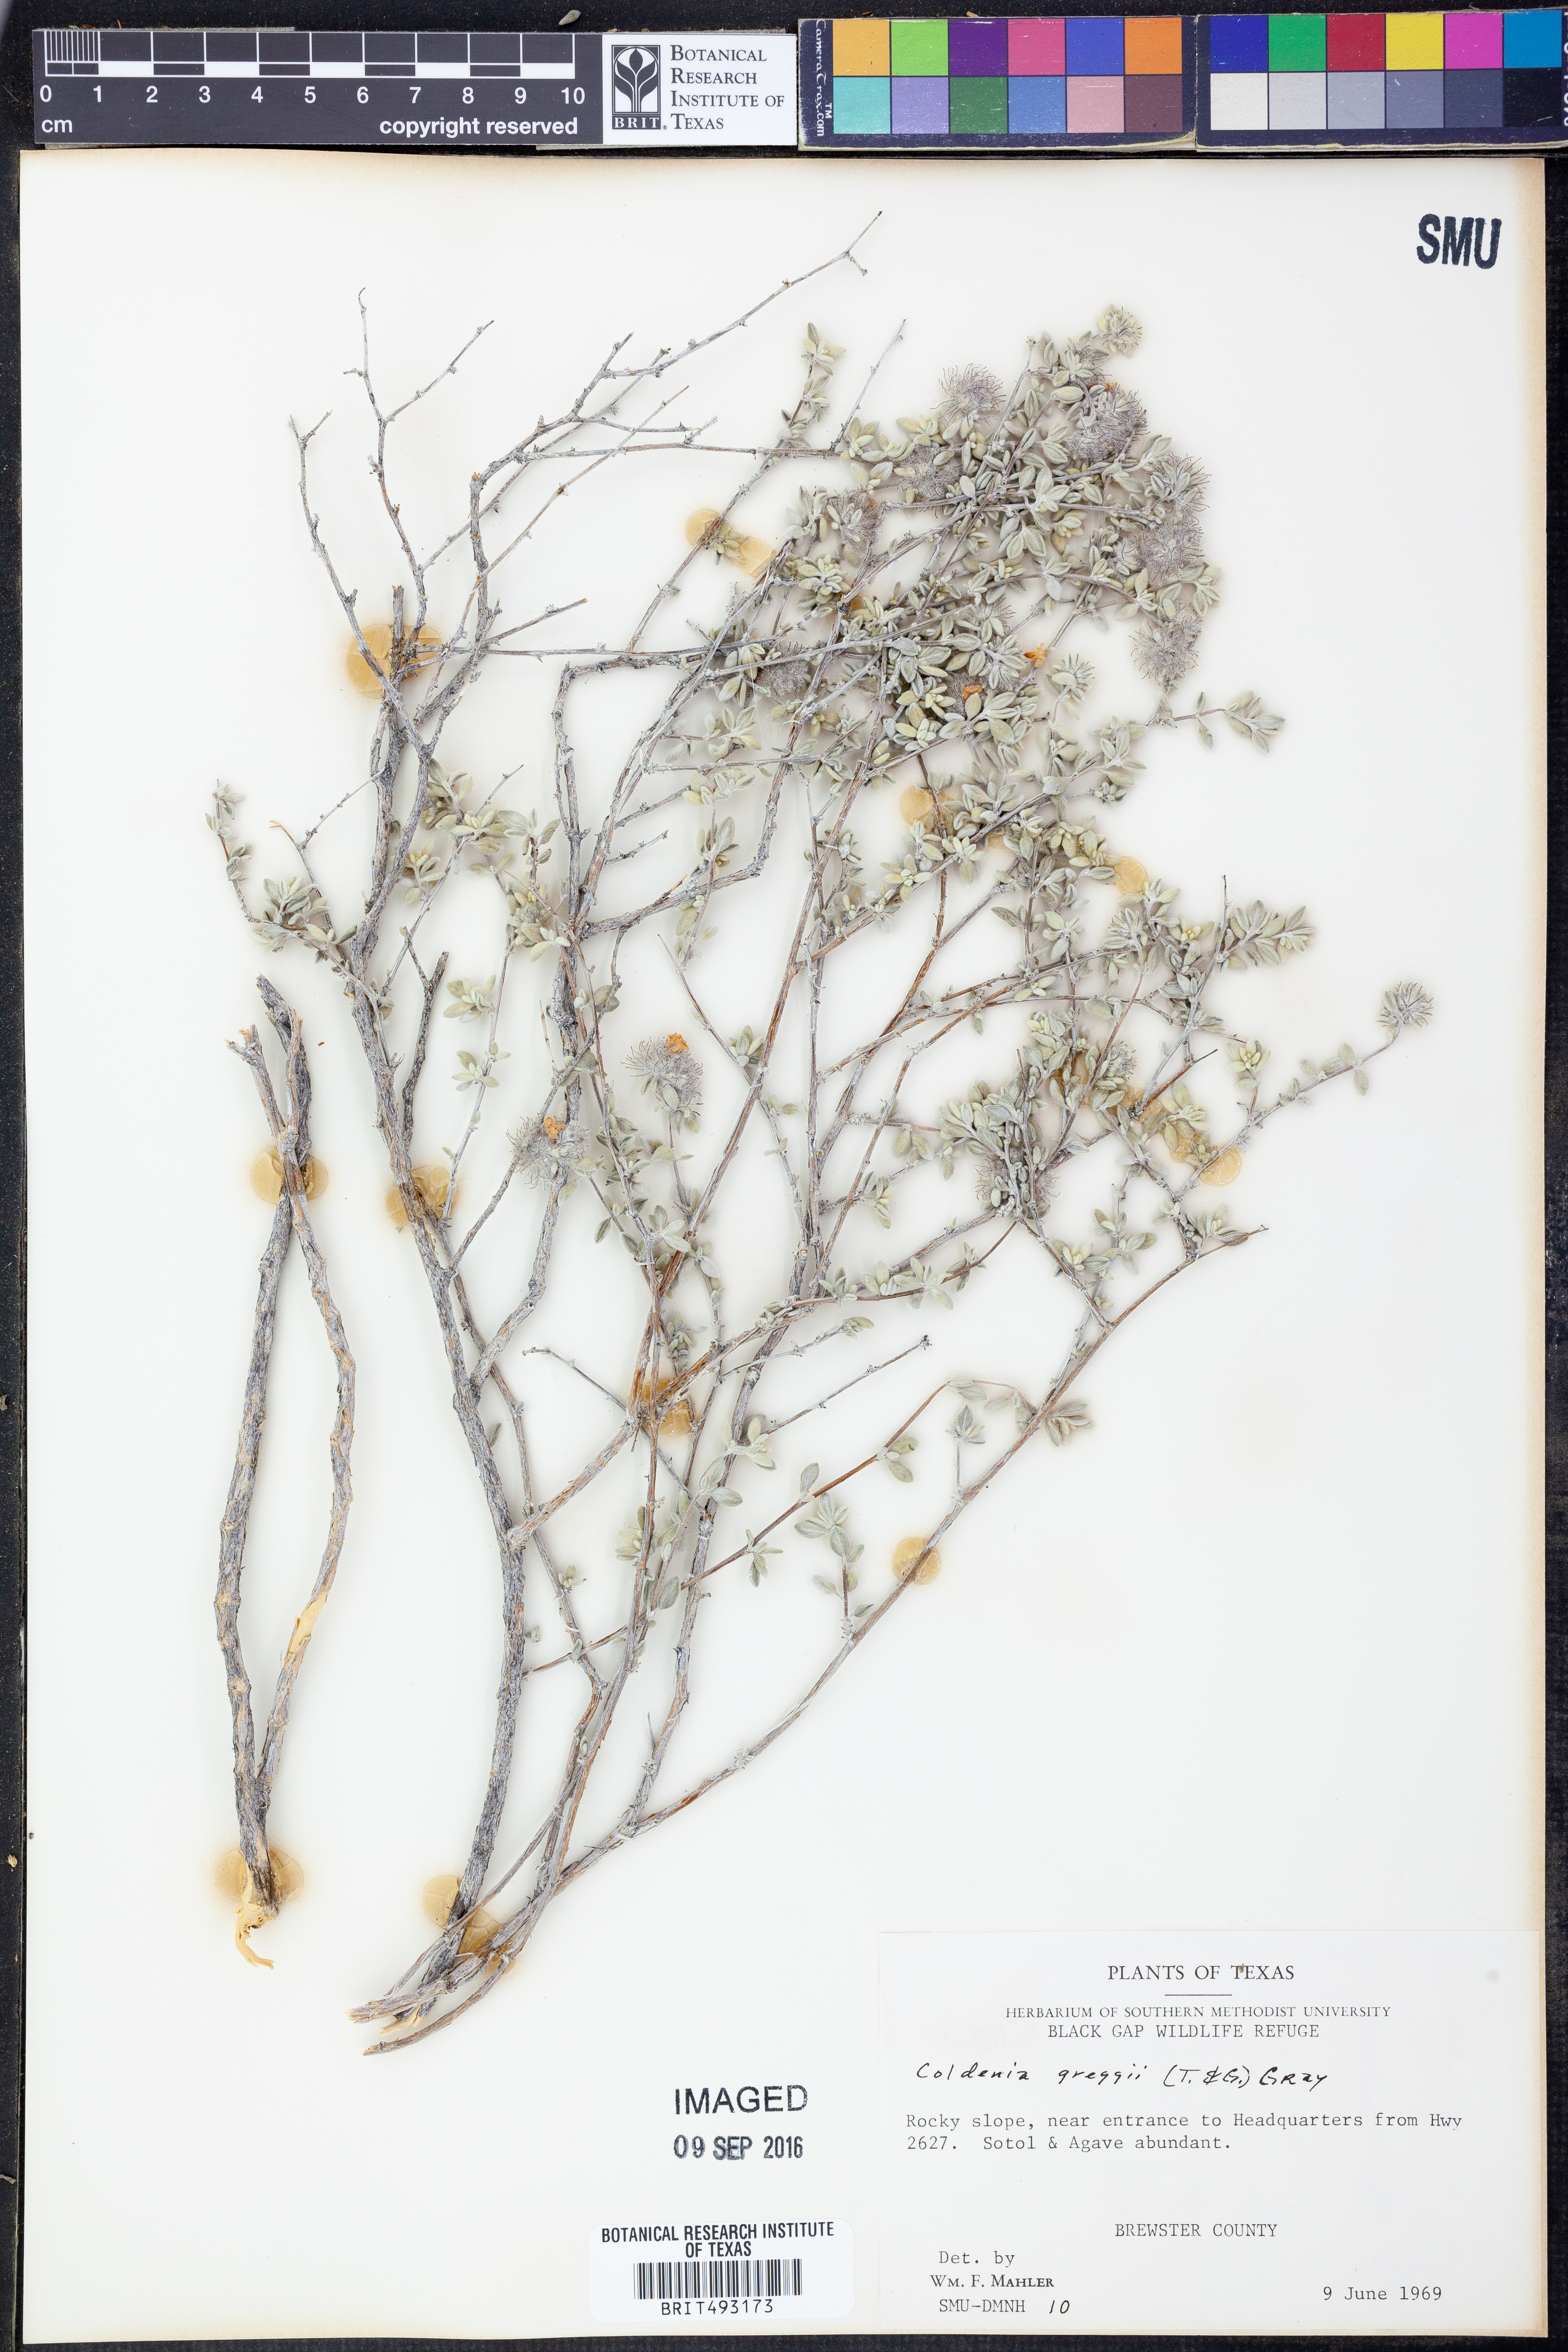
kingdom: Plantae
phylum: Tracheophyta
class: Magnoliopsida
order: Boraginales
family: Ehretiaceae
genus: Tiquilia
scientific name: Tiquilia greggii
